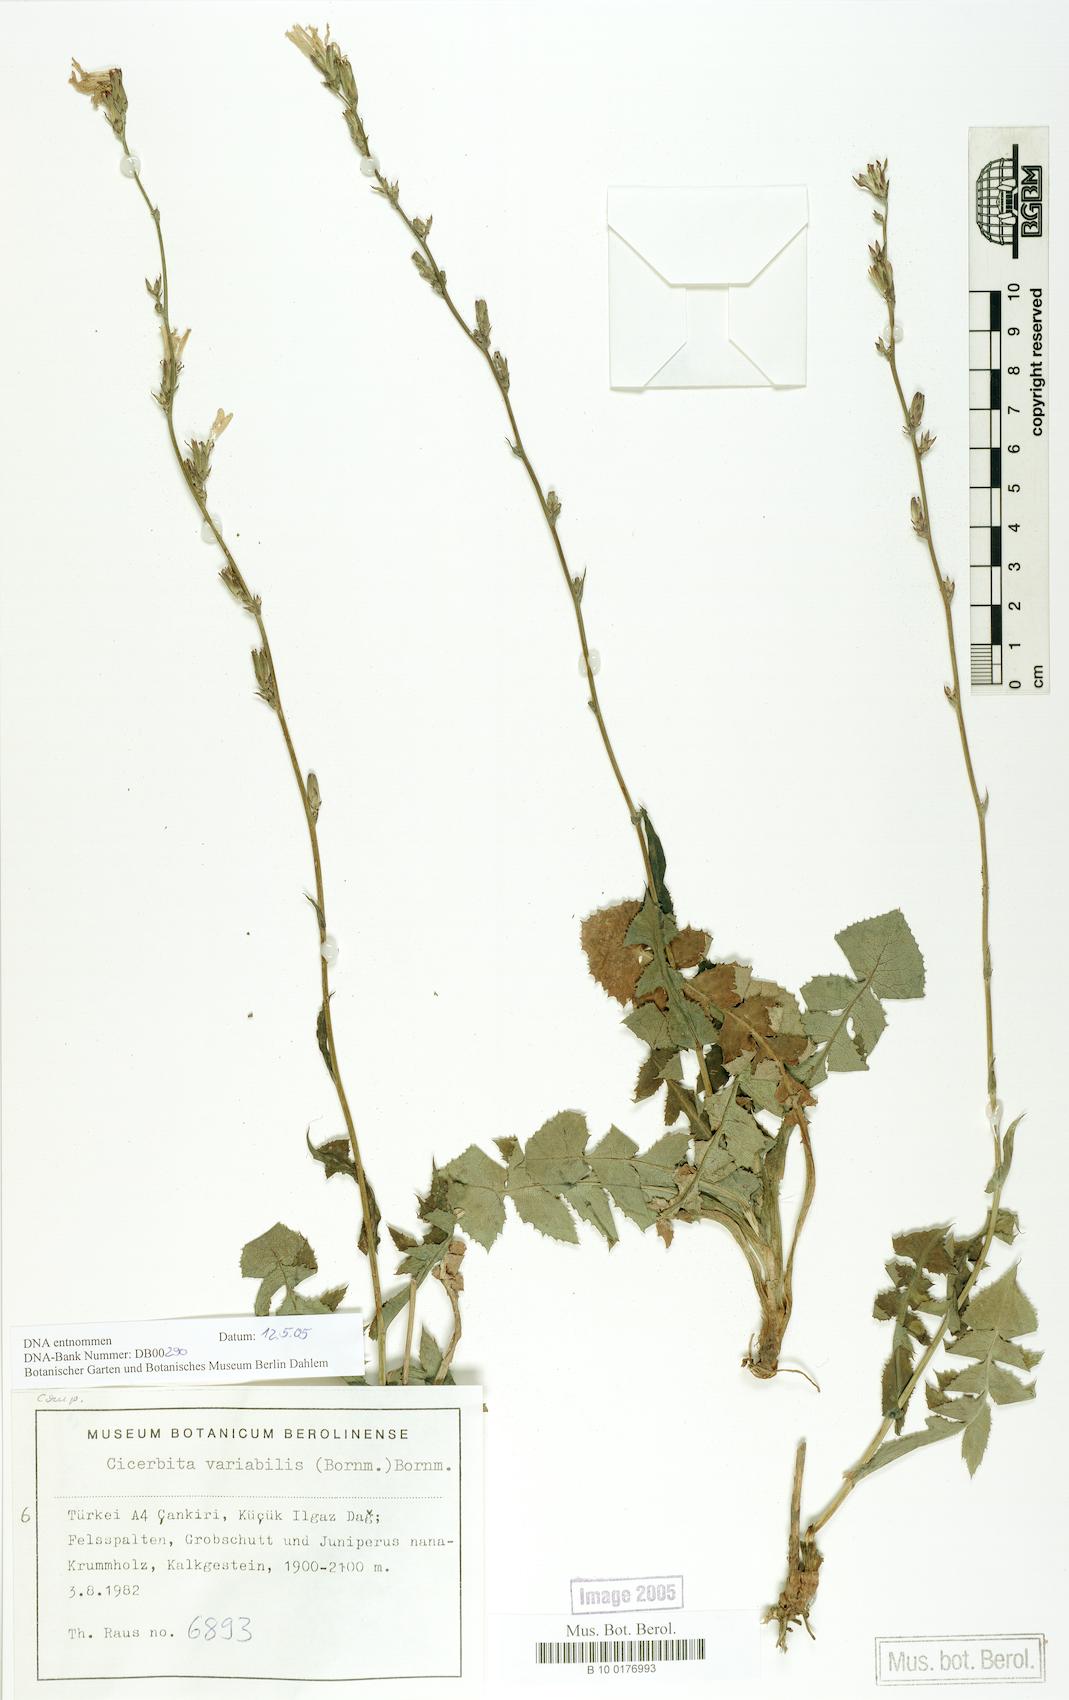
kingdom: Plantae
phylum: Tracheophyta
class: Magnoliopsida
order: Asterales
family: Asteraceae
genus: Lactuca
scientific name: Lactuca variabilis
